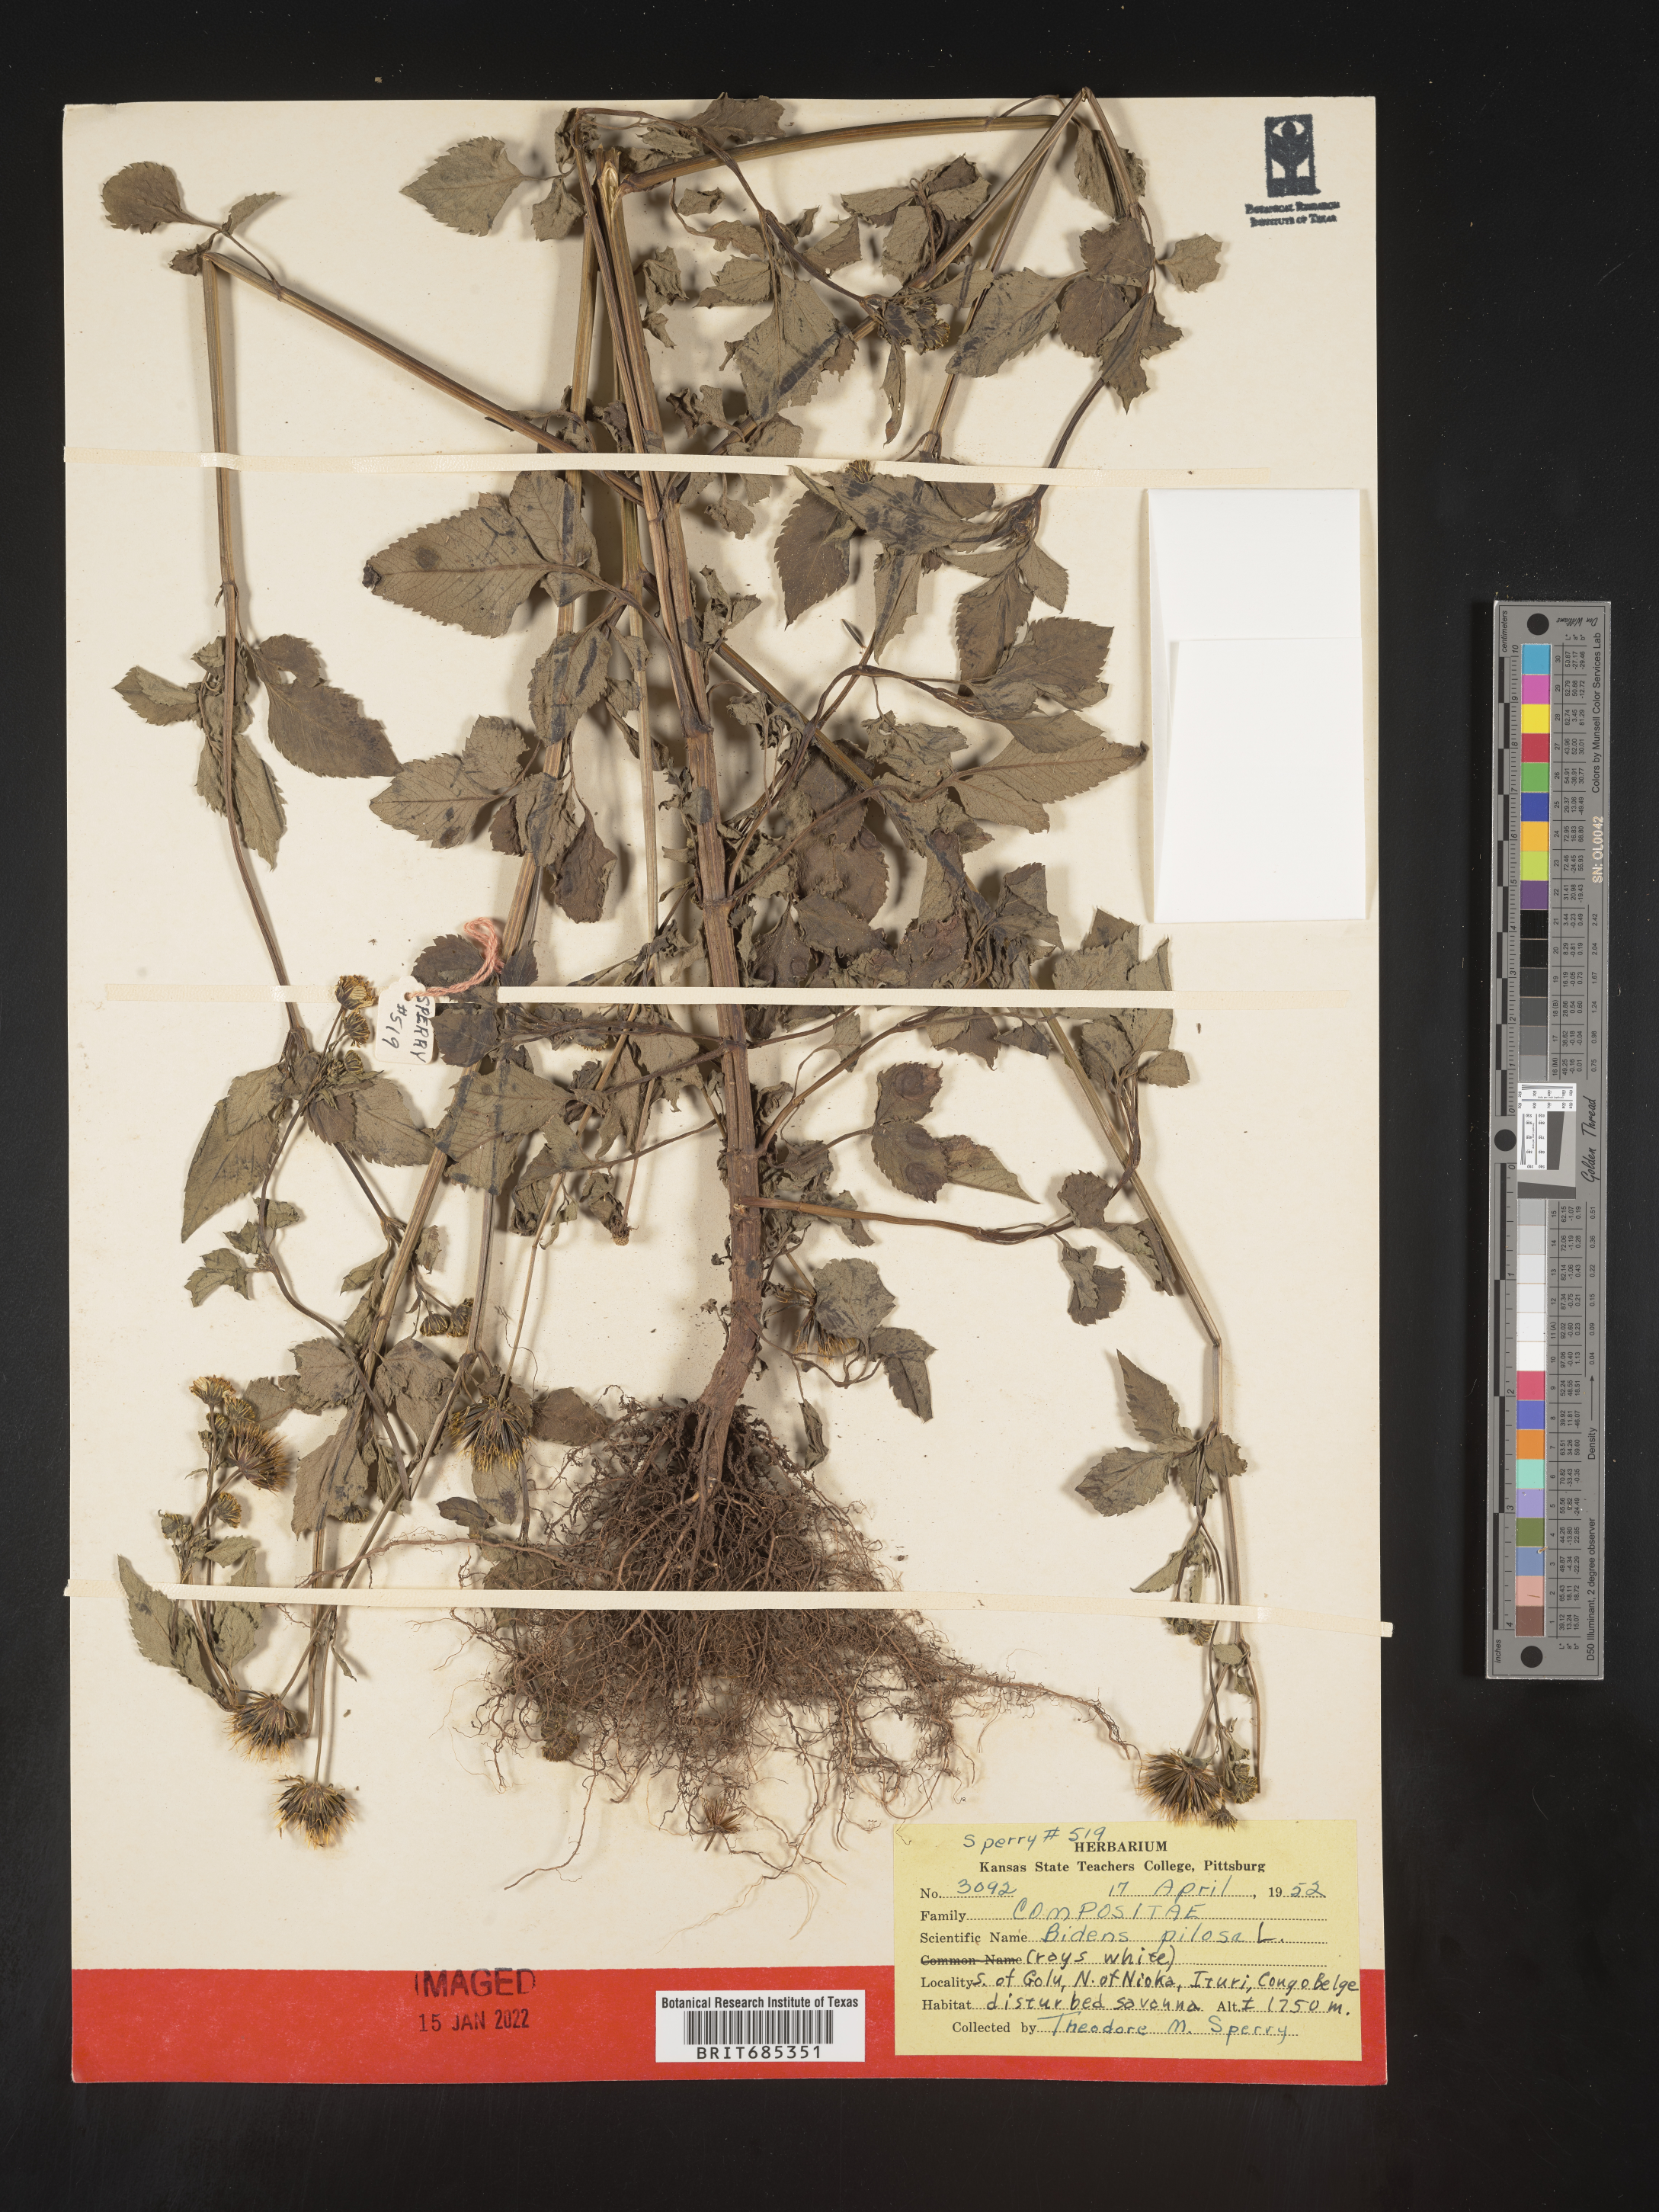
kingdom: Plantae
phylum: Tracheophyta
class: Magnoliopsida
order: Asterales
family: Asteraceae
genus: Bidens
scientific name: Bidens
